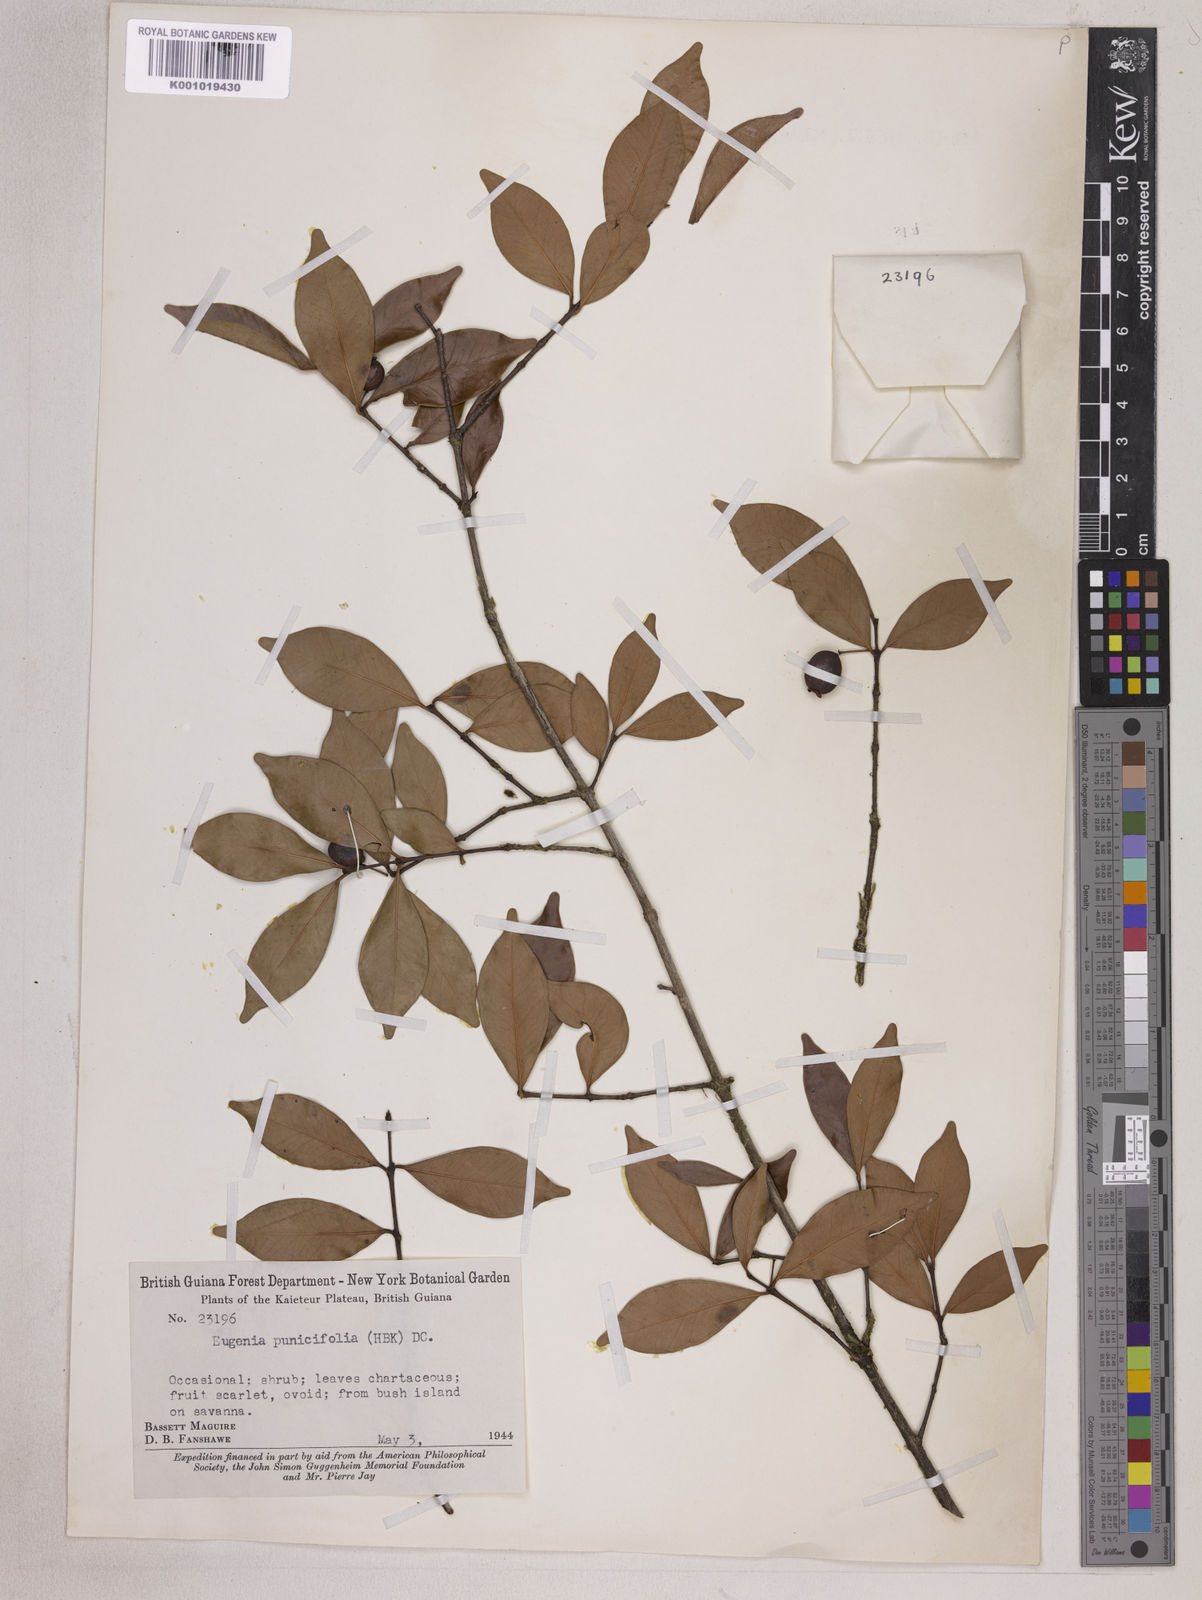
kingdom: Plantae
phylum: Tracheophyta
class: Magnoliopsida
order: Myrtales
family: Myrtaceae
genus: Eugenia
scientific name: Eugenia punicifolia
